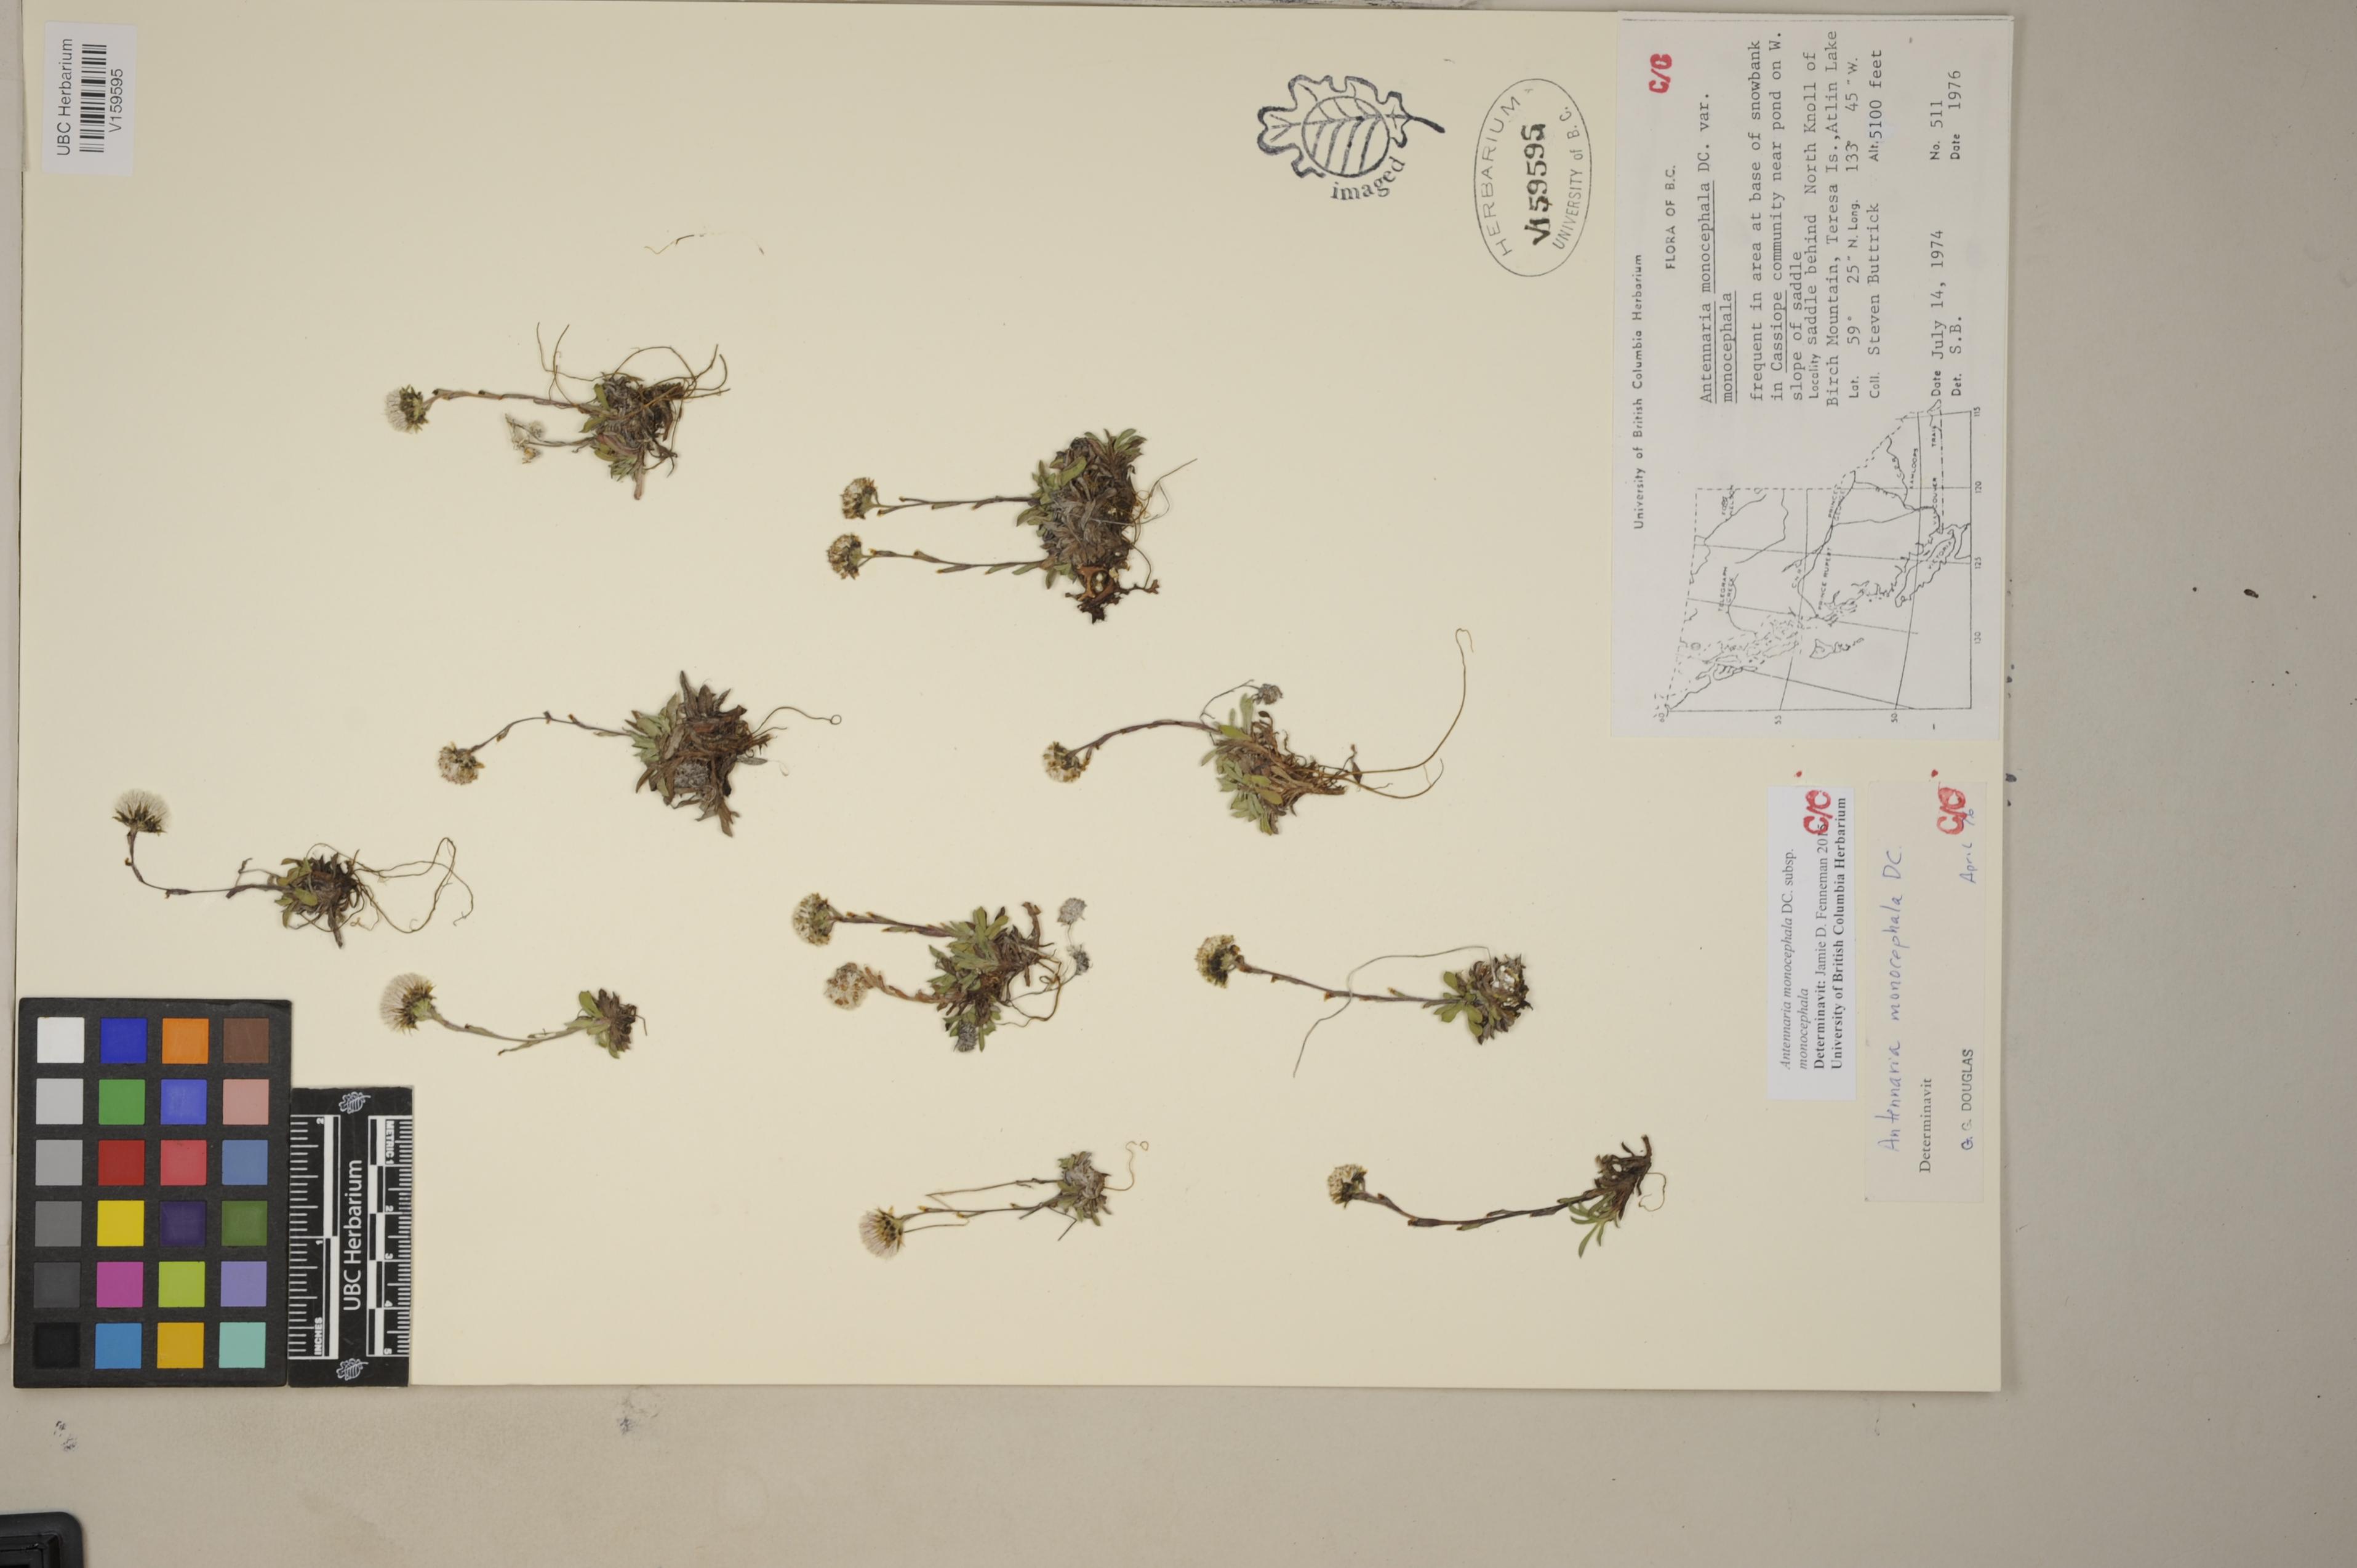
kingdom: Plantae
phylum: Tracheophyta
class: Magnoliopsida
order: Asterales
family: Asteraceae
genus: Antennaria
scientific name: Antennaria monocephala
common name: Pygmy pussytoes
